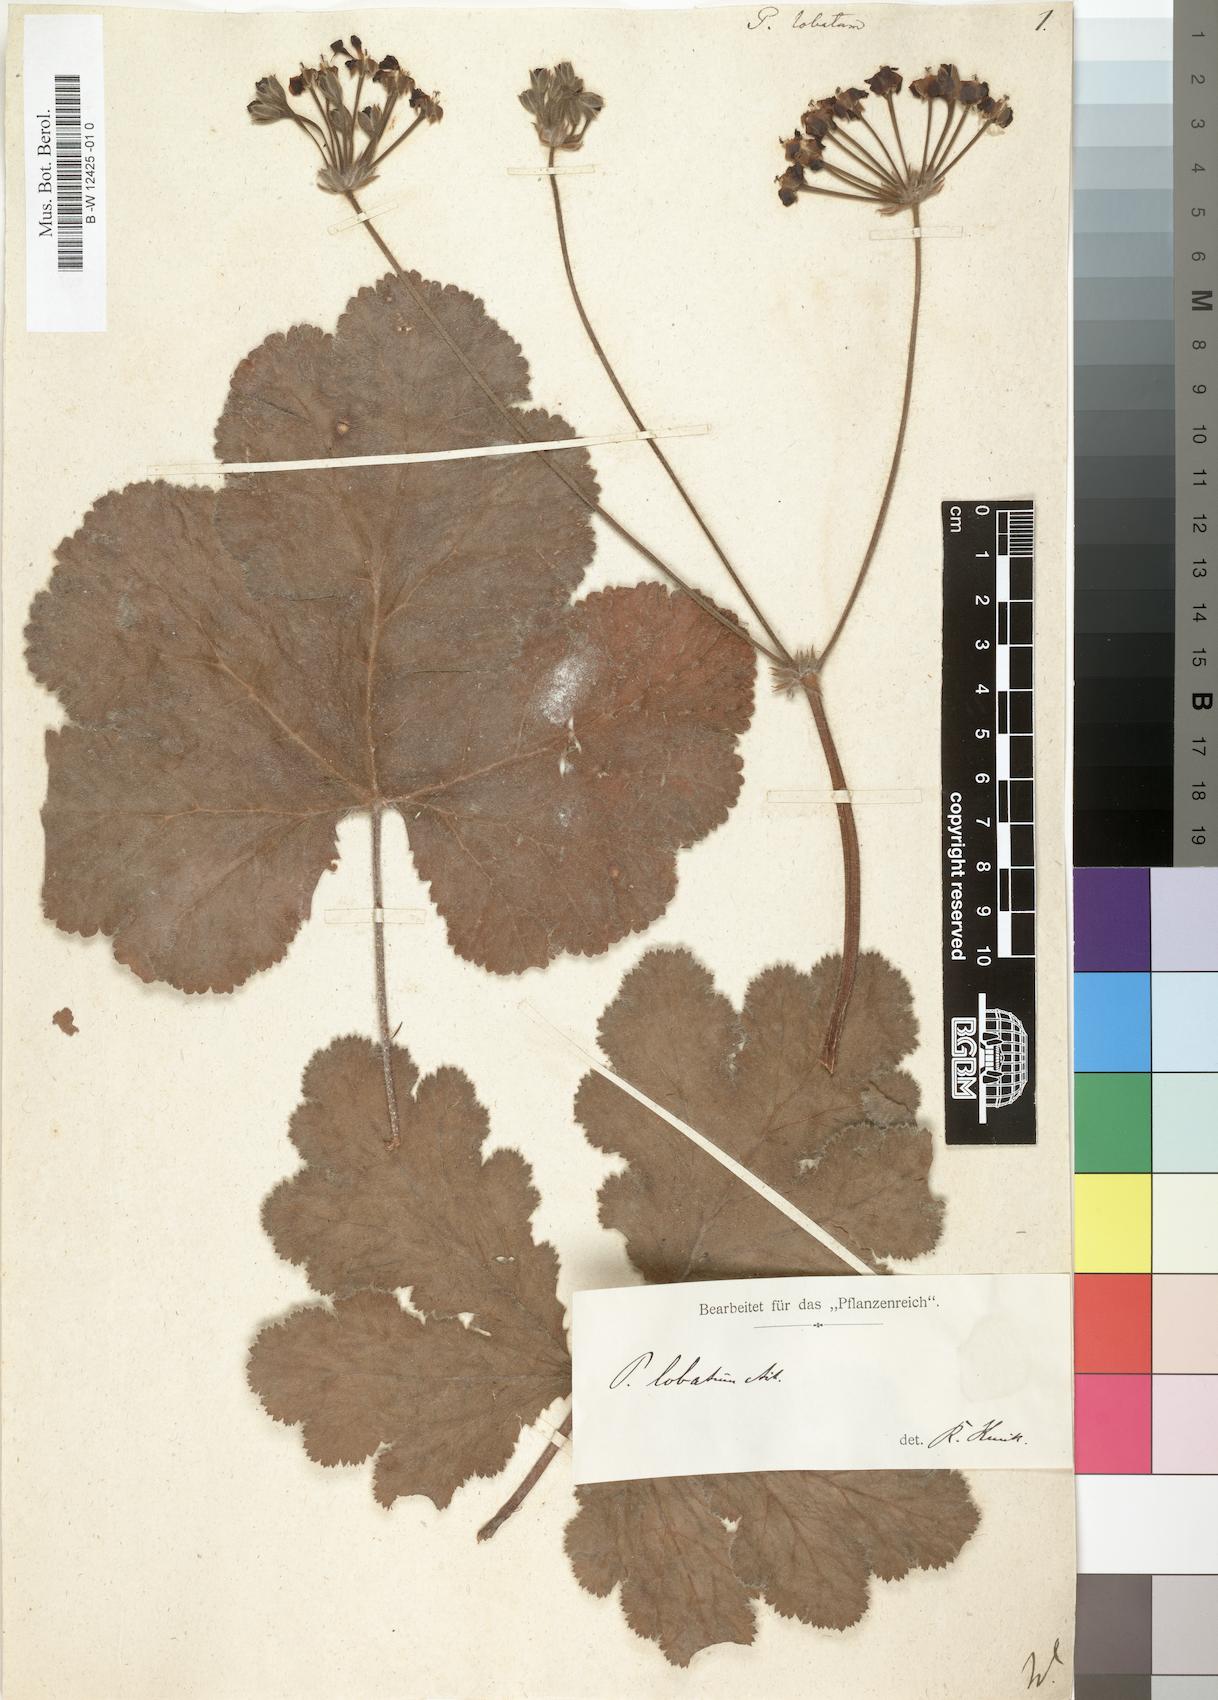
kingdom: Plantae
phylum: Tracheophyta
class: Magnoliopsida
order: Geraniales
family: Geraniaceae
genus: Pelargonium
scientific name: Pelargonium lobatum
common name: Vine-leaf pelargonium
